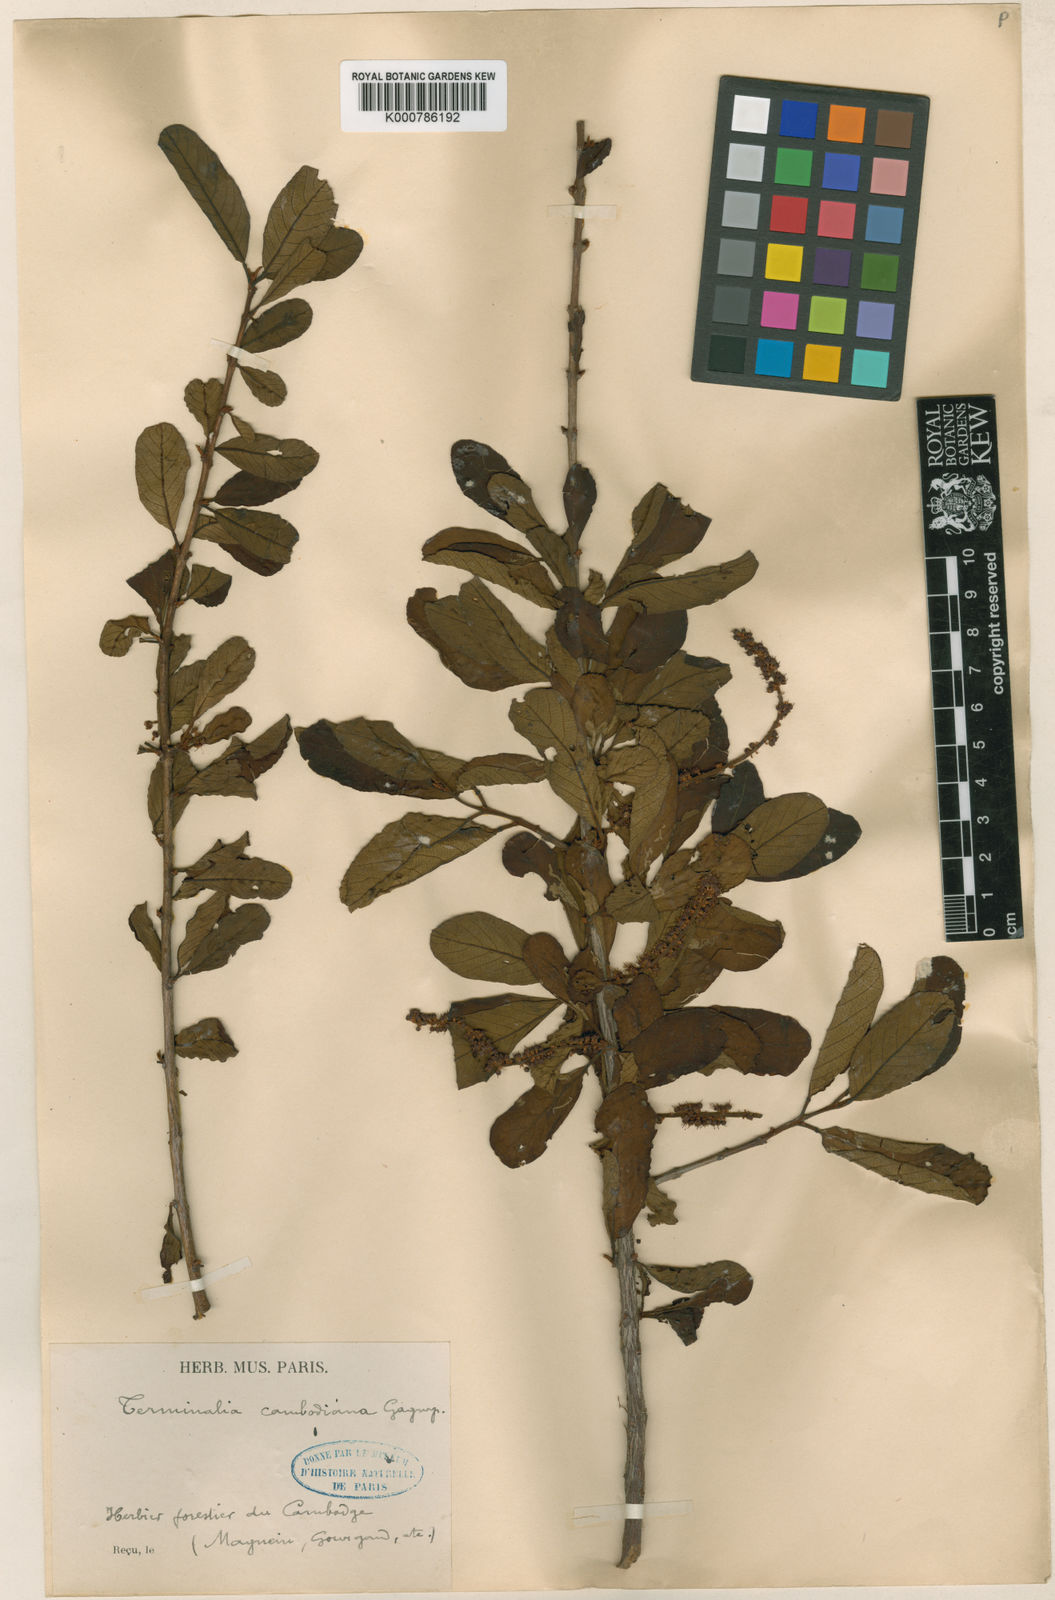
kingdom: Plantae
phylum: Tracheophyta
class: Magnoliopsida
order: Myrtales
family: Combretaceae
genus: Terminalia
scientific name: Terminalia cambodiana
